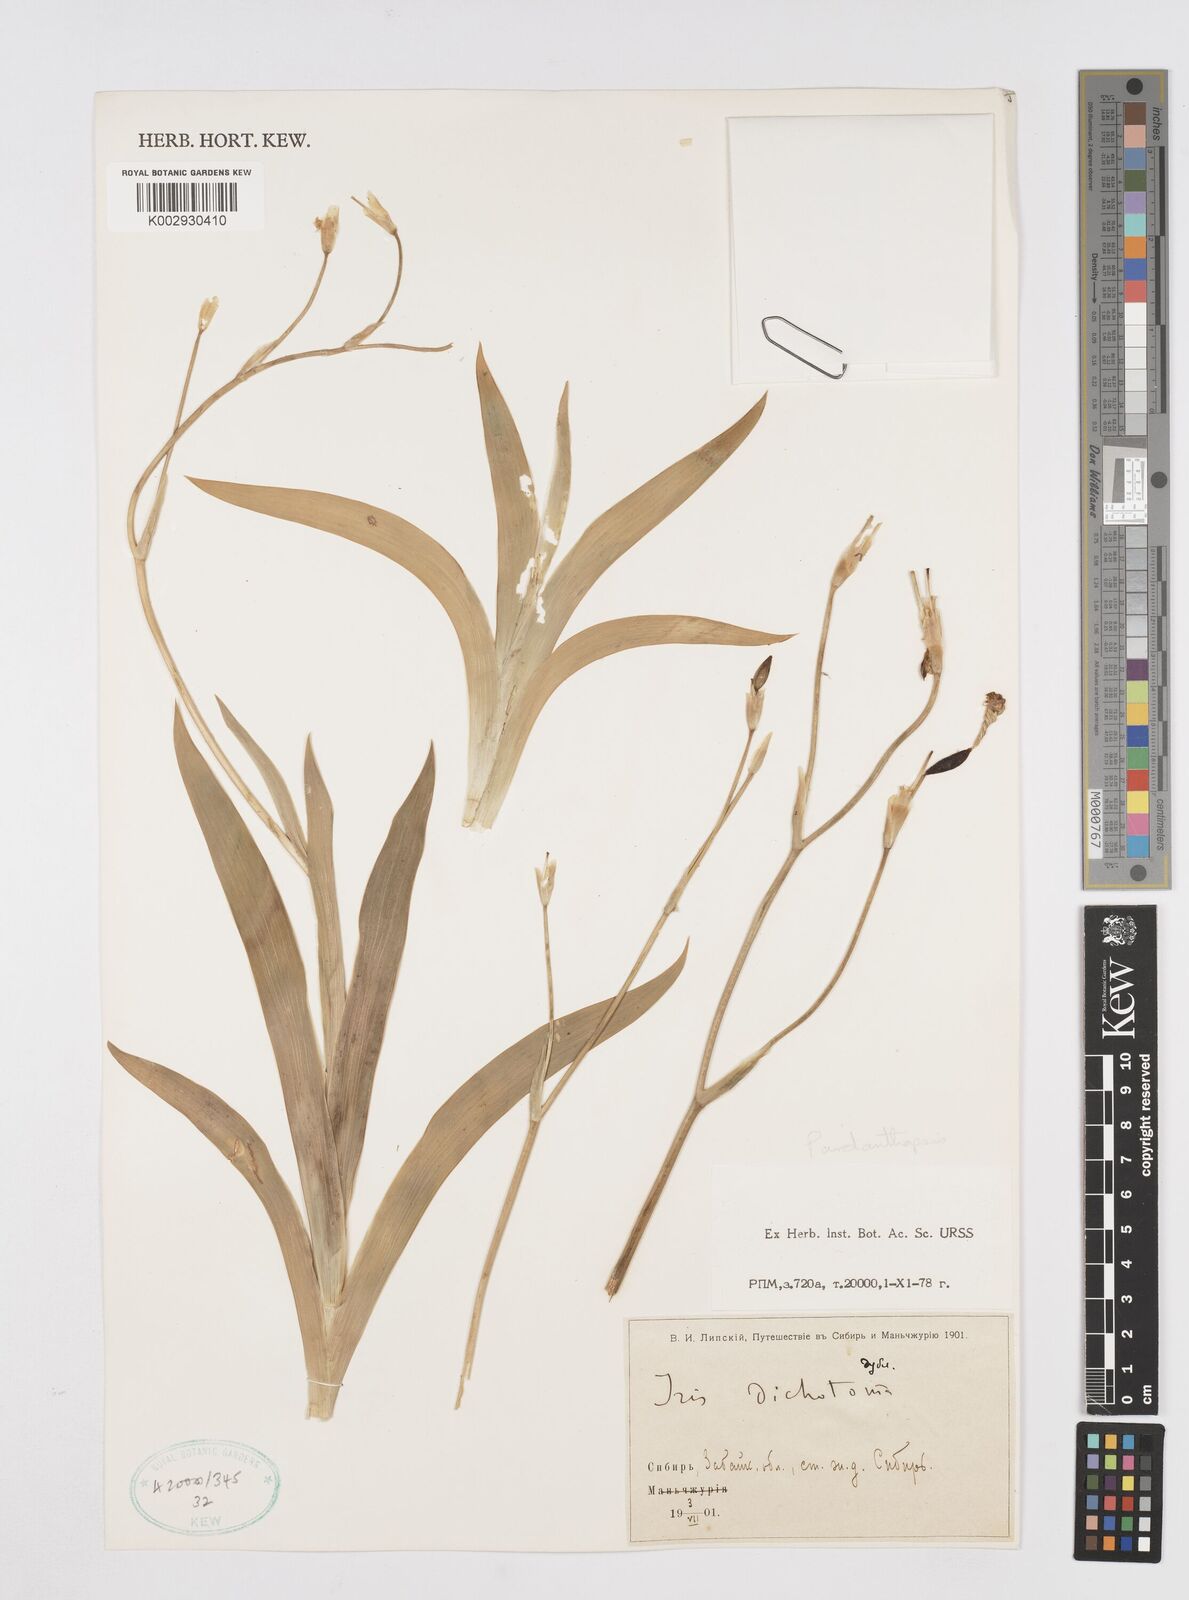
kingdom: Plantae
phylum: Tracheophyta
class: Liliopsida
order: Asparagales
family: Iridaceae
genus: Iris
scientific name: Iris dichotoma
